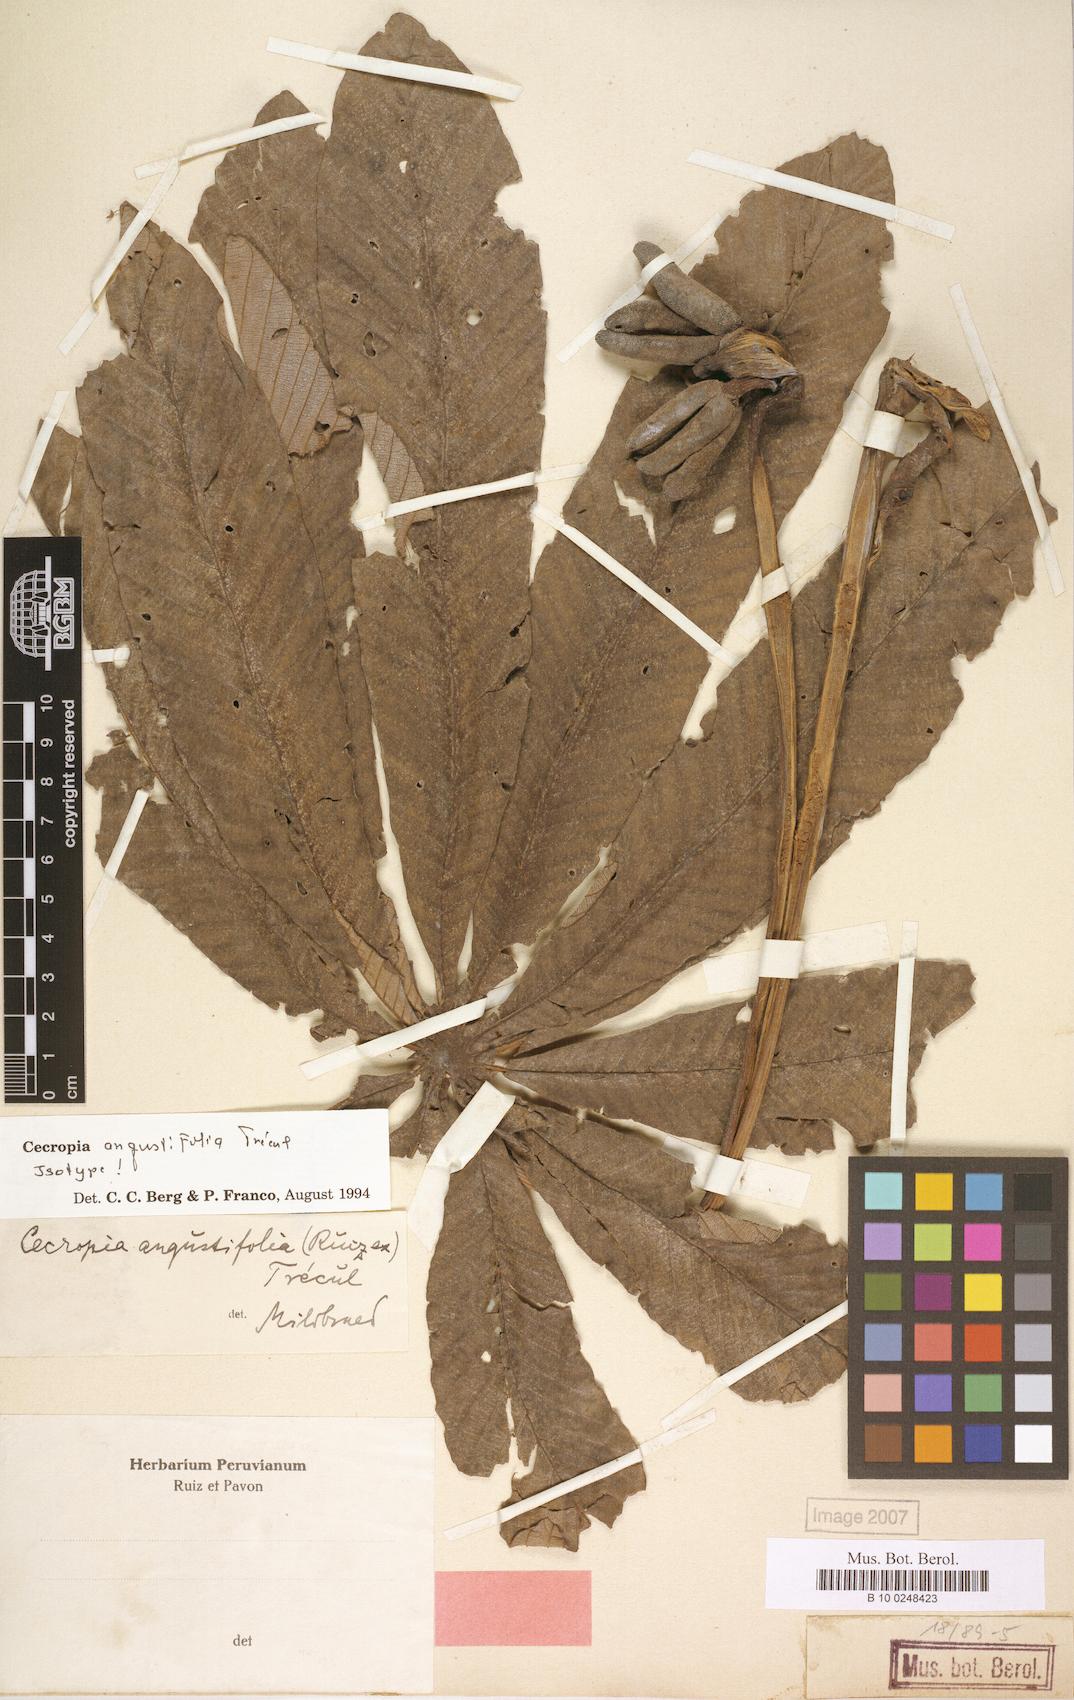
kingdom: Plantae
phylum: Tracheophyta
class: Magnoliopsida
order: Rosales
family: Urticaceae
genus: Cecropia
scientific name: Cecropia angustifolia
